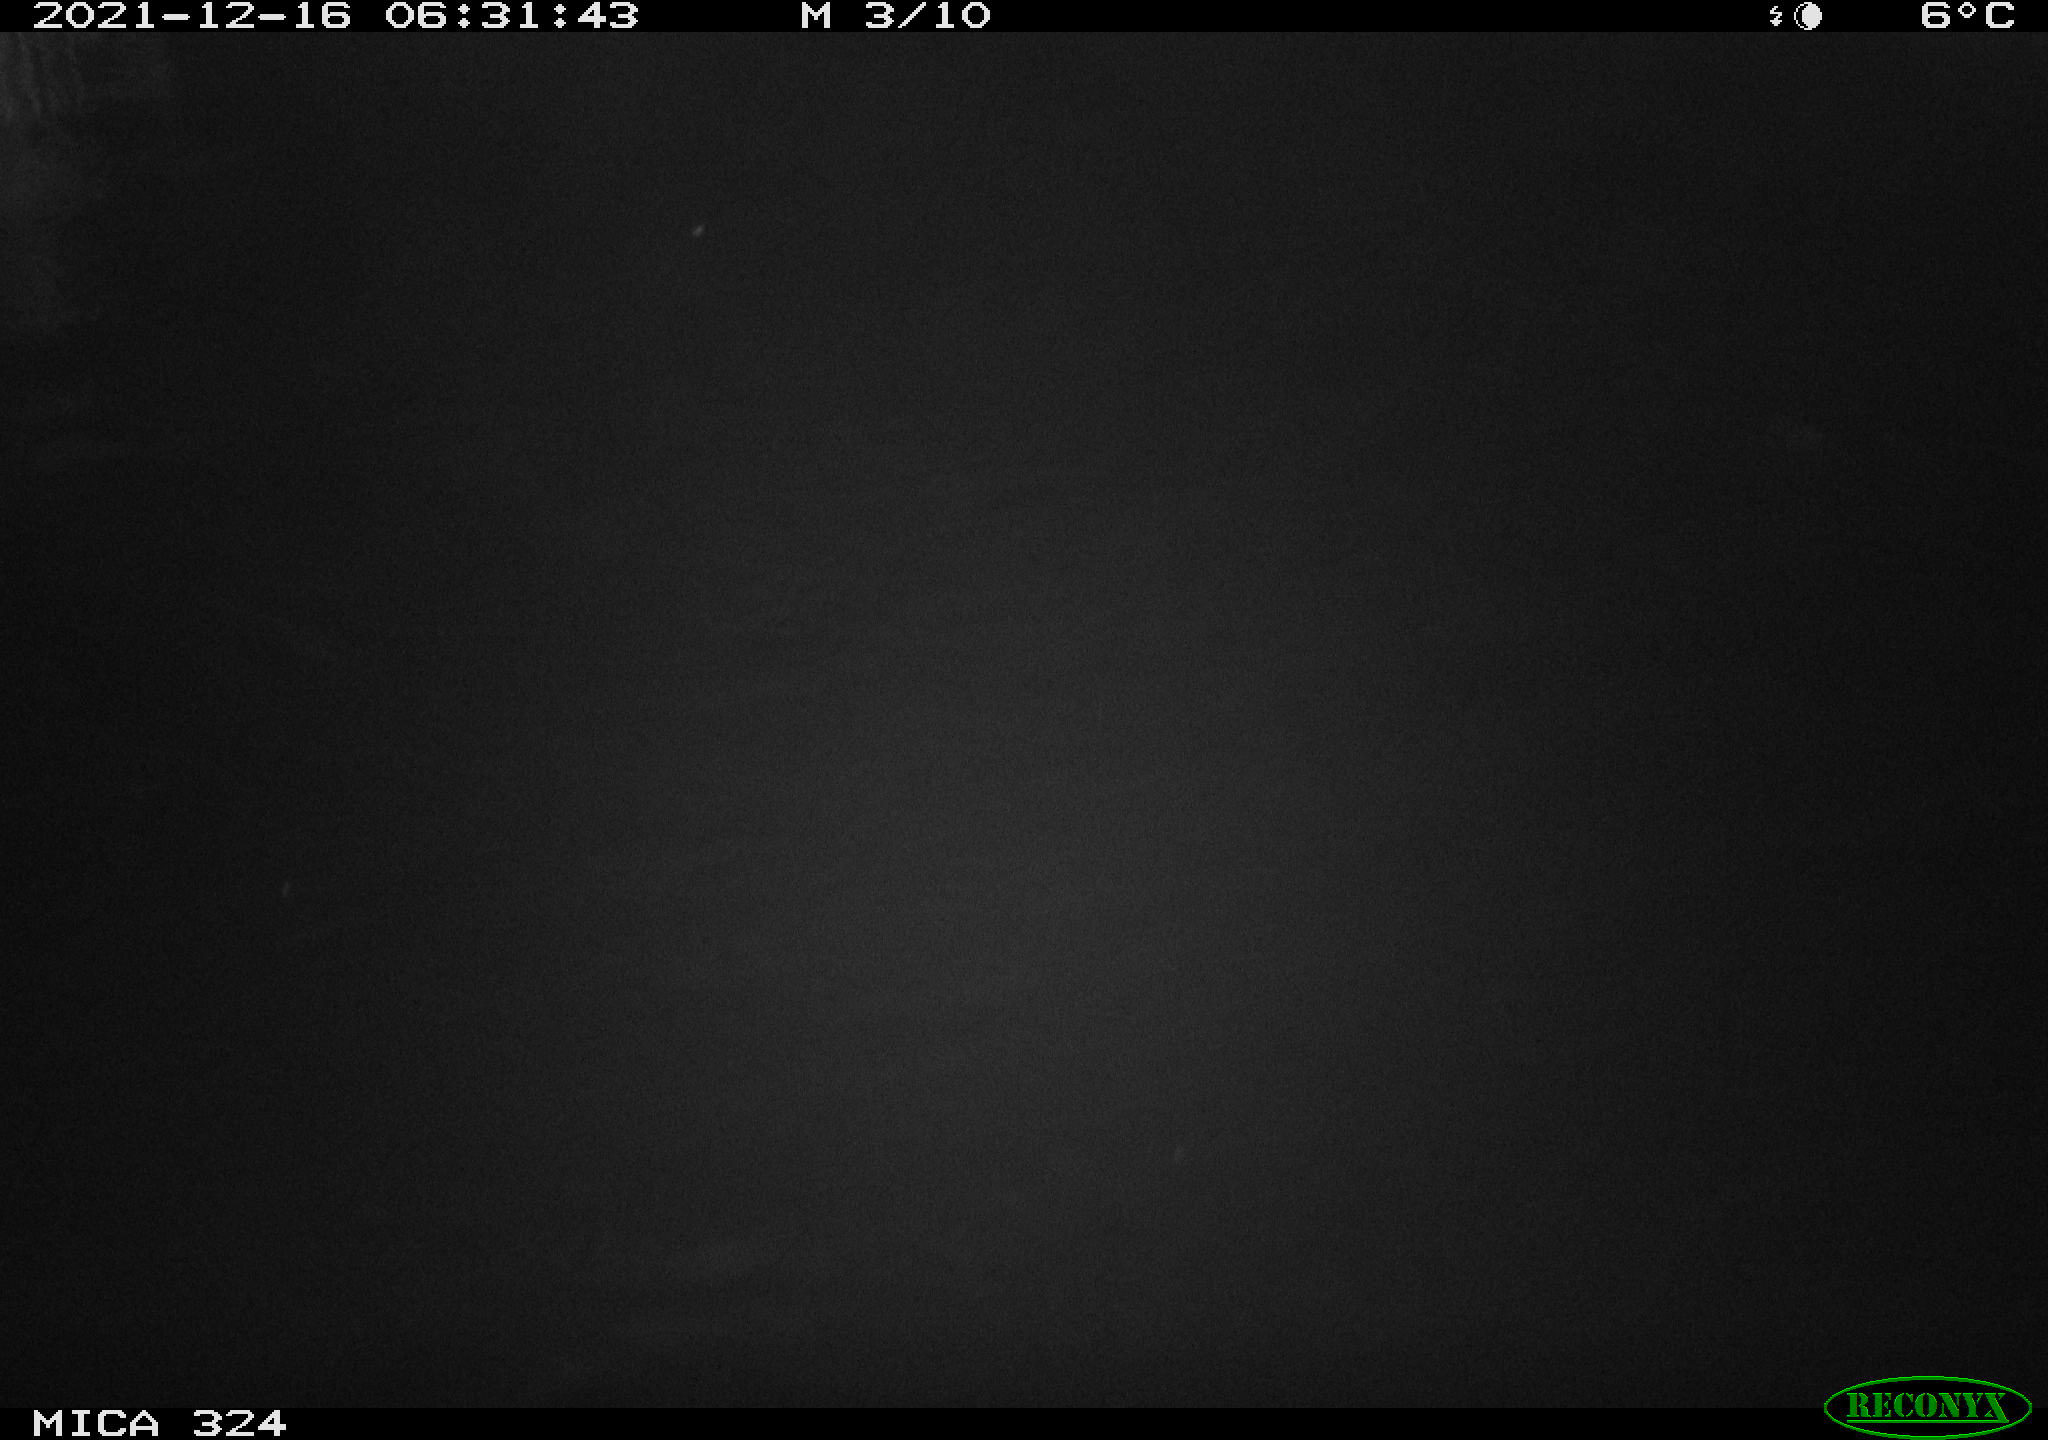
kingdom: Animalia
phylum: Chordata
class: Mammalia
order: Rodentia
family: Cricetidae
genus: Ondatra
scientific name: Ondatra zibethicus
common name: Muskrat
